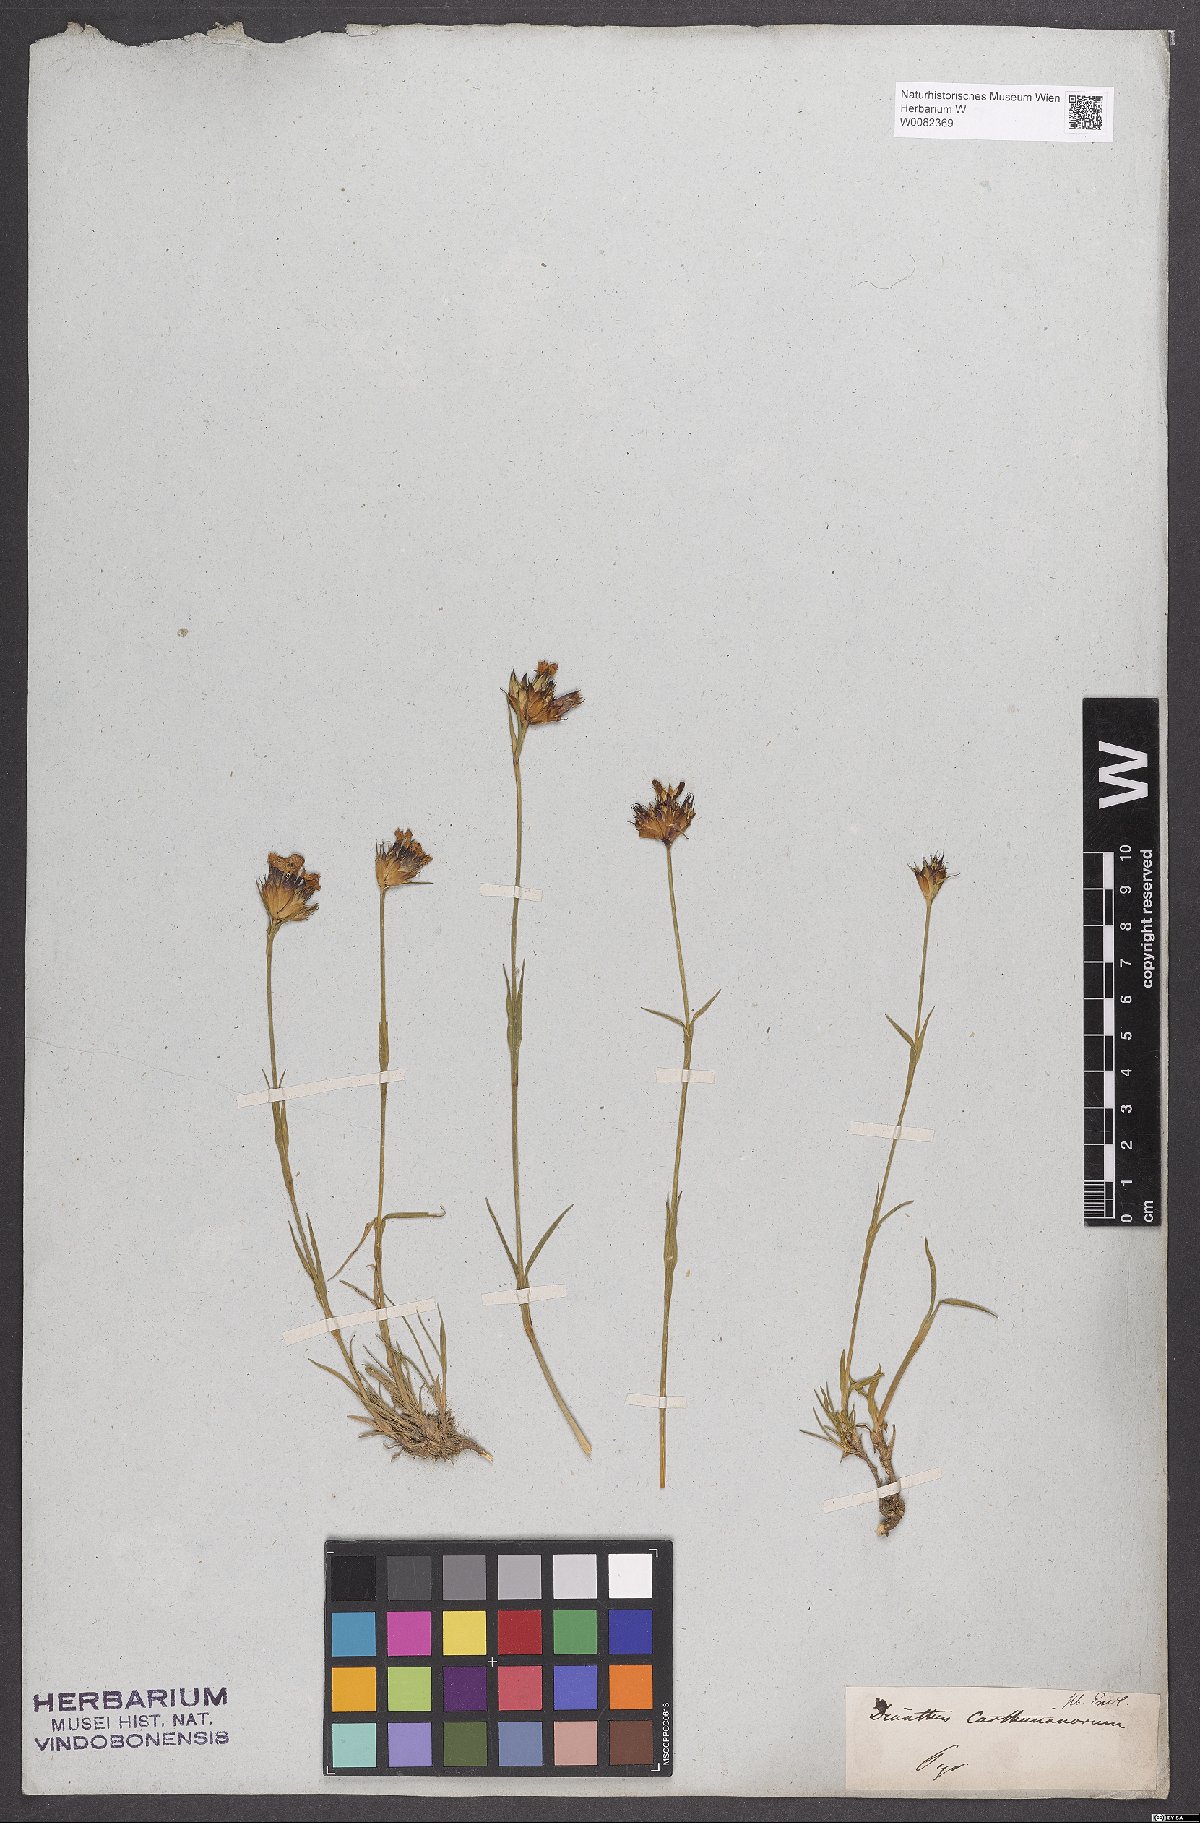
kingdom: Plantae
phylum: Tracheophyta
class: Magnoliopsida
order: Caryophyllales
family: Caryophyllaceae
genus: Dianthus
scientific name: Dianthus carthusianorum
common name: Carthusian pink
